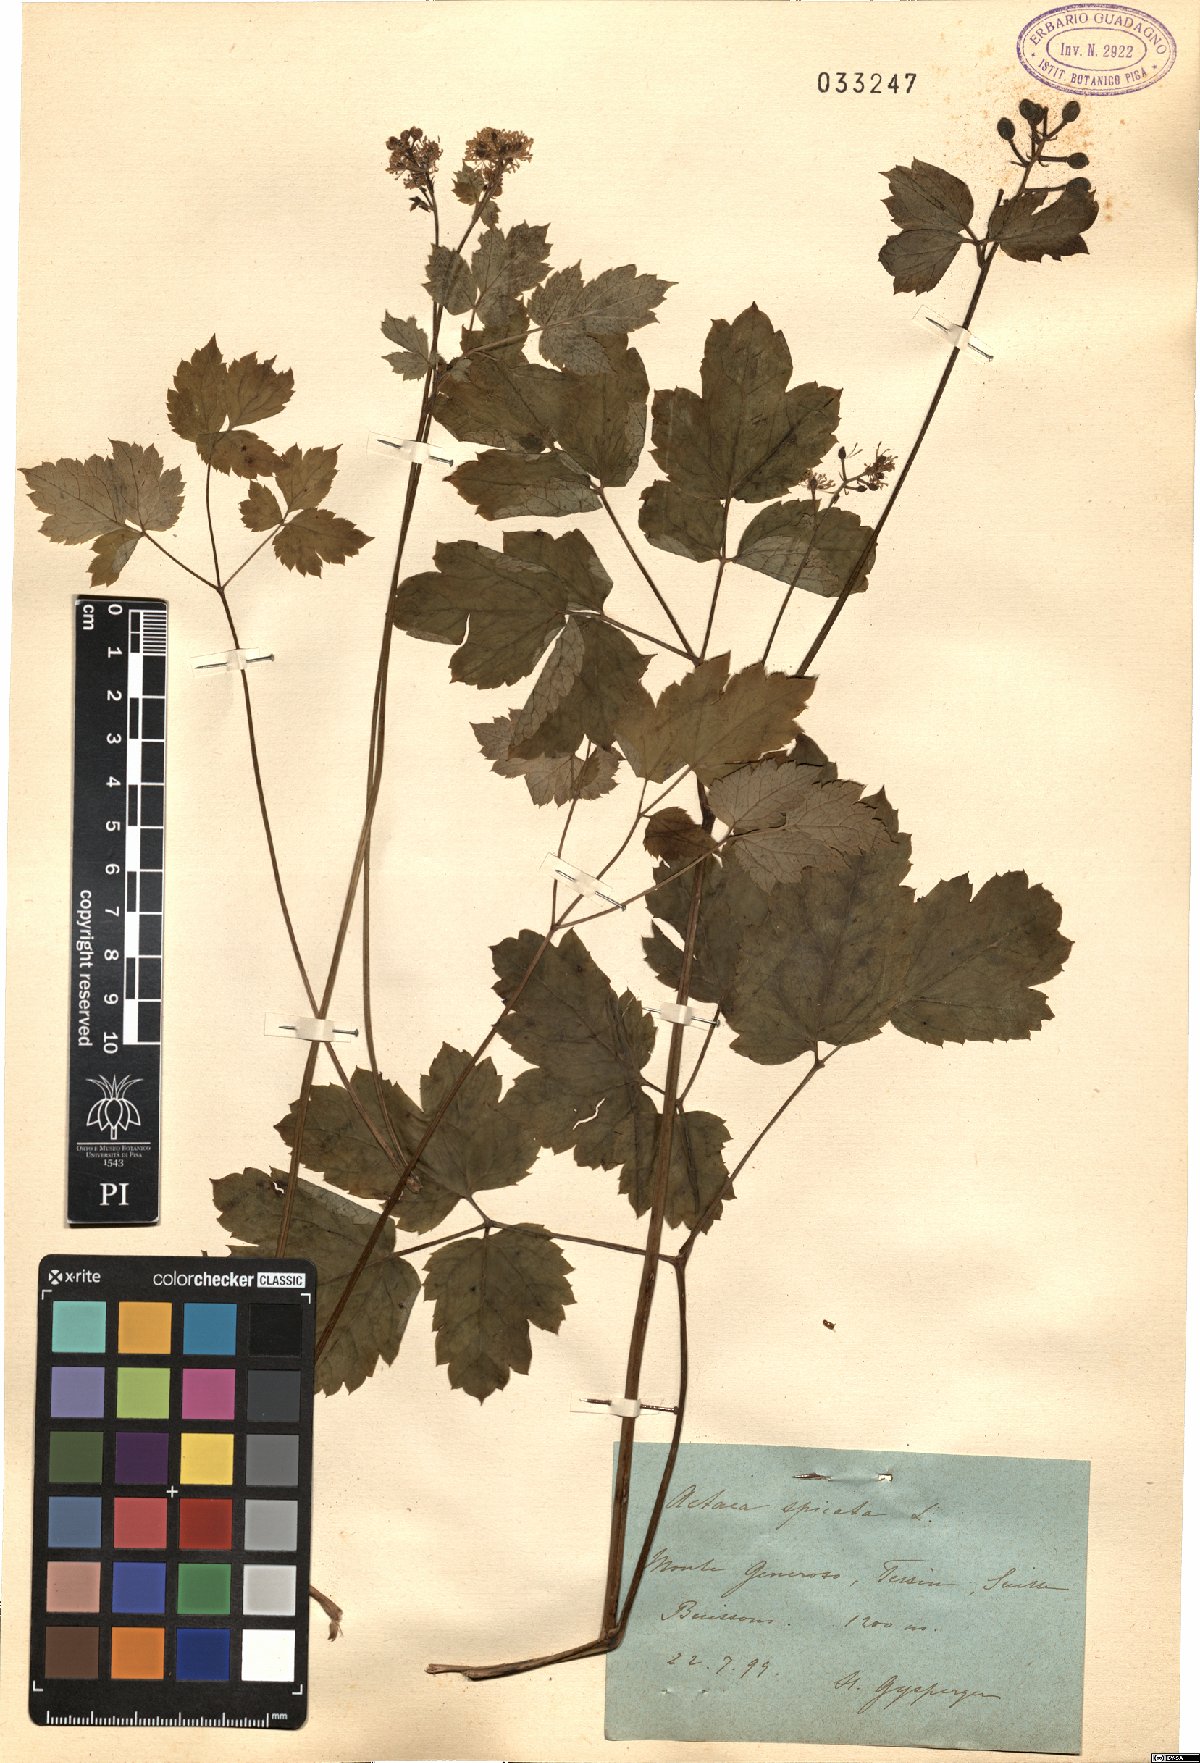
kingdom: Plantae
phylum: Tracheophyta
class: Magnoliopsida
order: Ranunculales
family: Ranunculaceae
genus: Actaea
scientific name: Actaea spicata
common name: Baneberry
